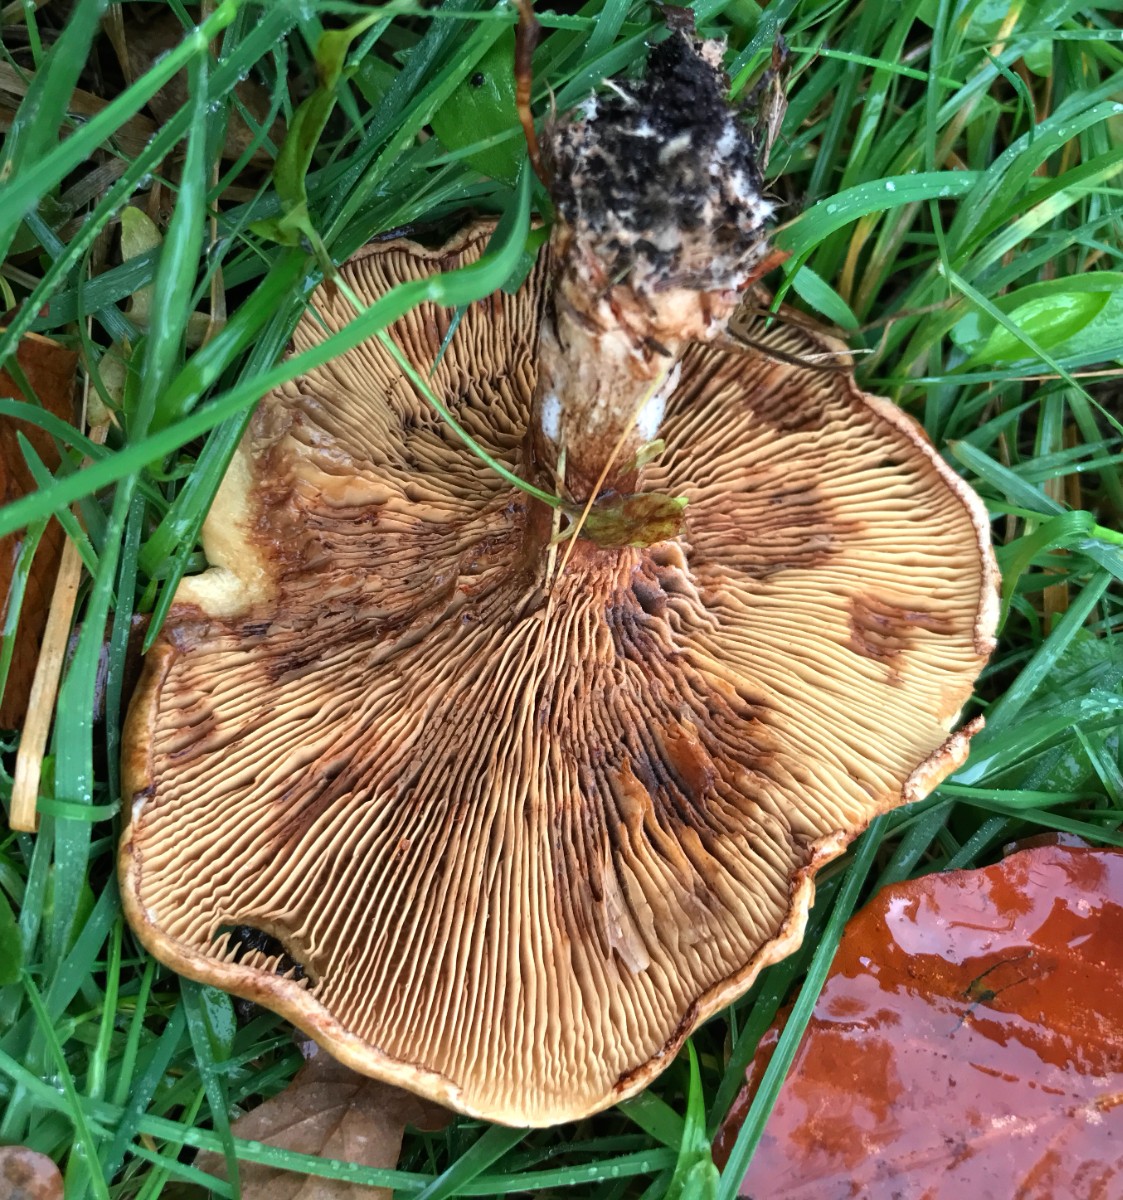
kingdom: Fungi
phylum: Basidiomycota
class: Agaricomycetes
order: Boletales
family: Paxillaceae
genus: Paxillus
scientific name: Paxillus involutus
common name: almindelig netbladhat
